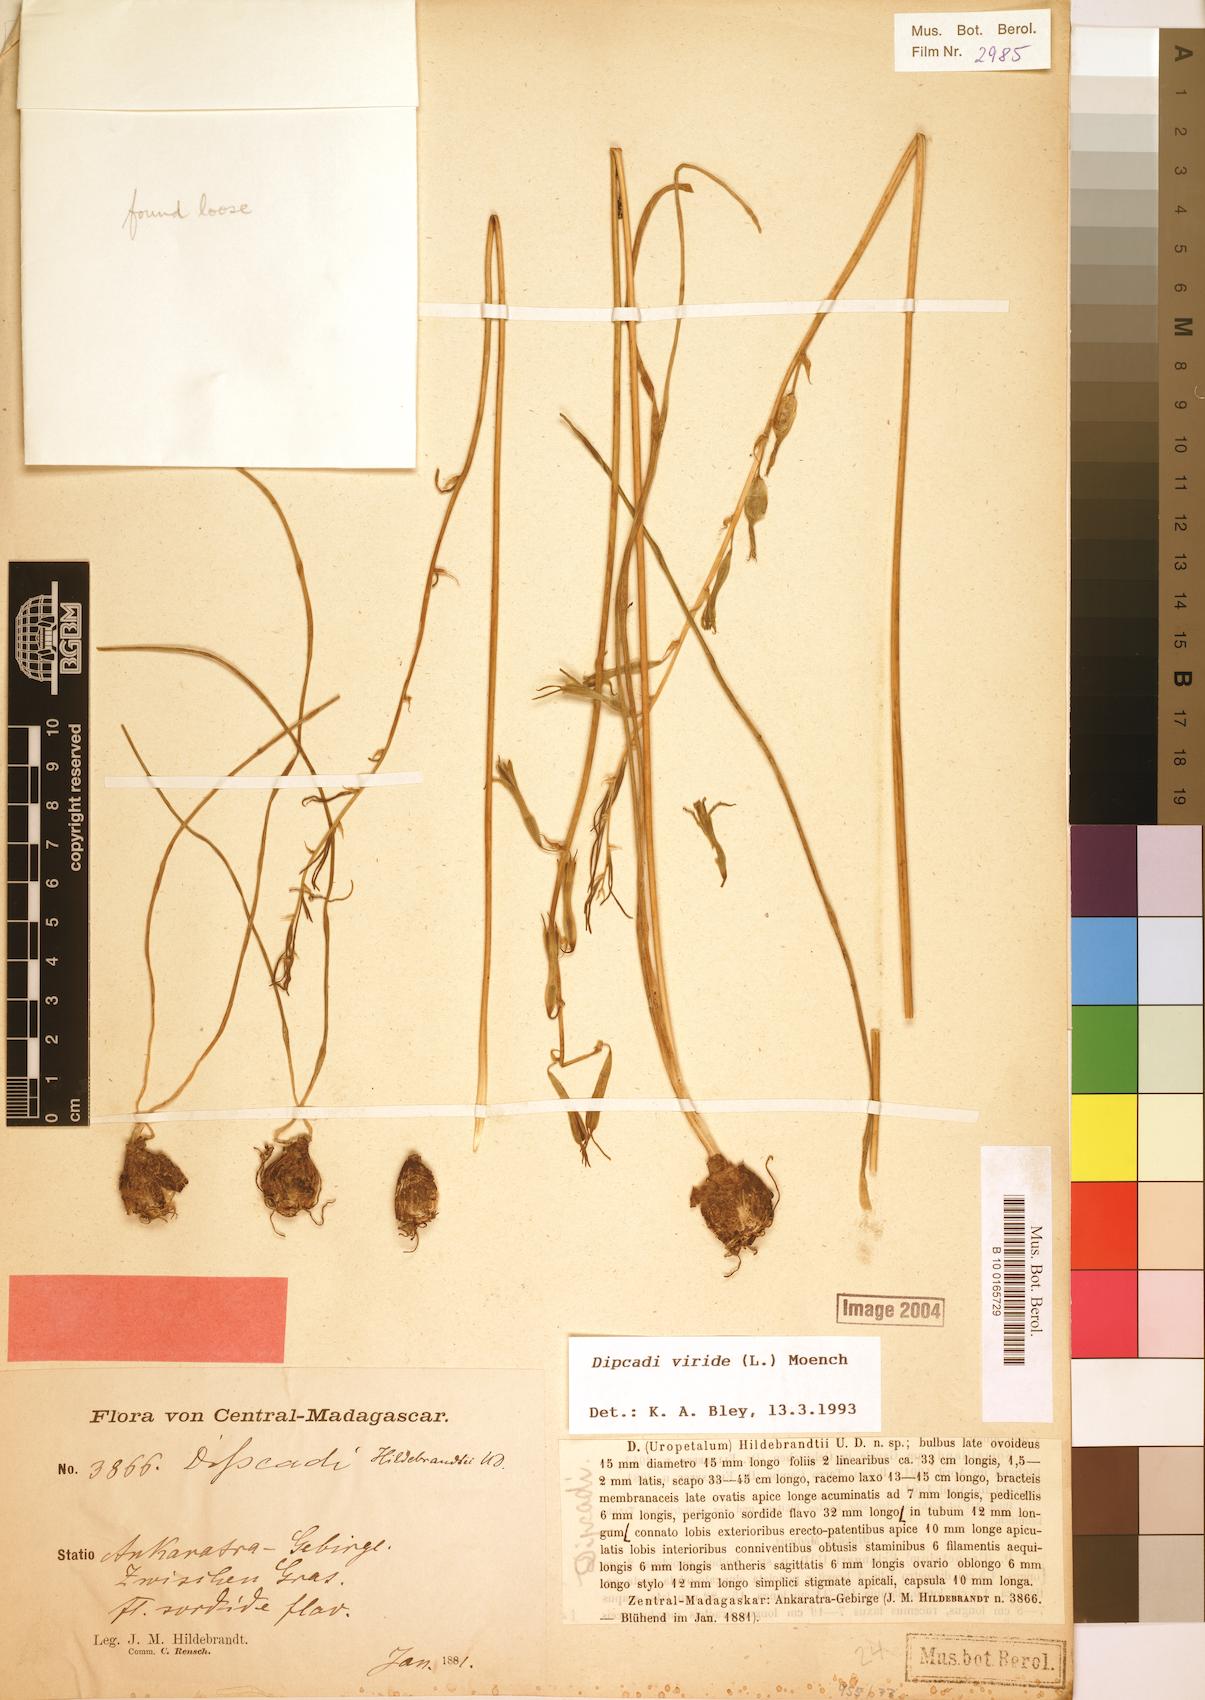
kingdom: Plantae
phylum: Tracheophyta
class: Liliopsida
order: Asparagales
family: Asparagaceae
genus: Dipcadi
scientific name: Dipcadi viride
